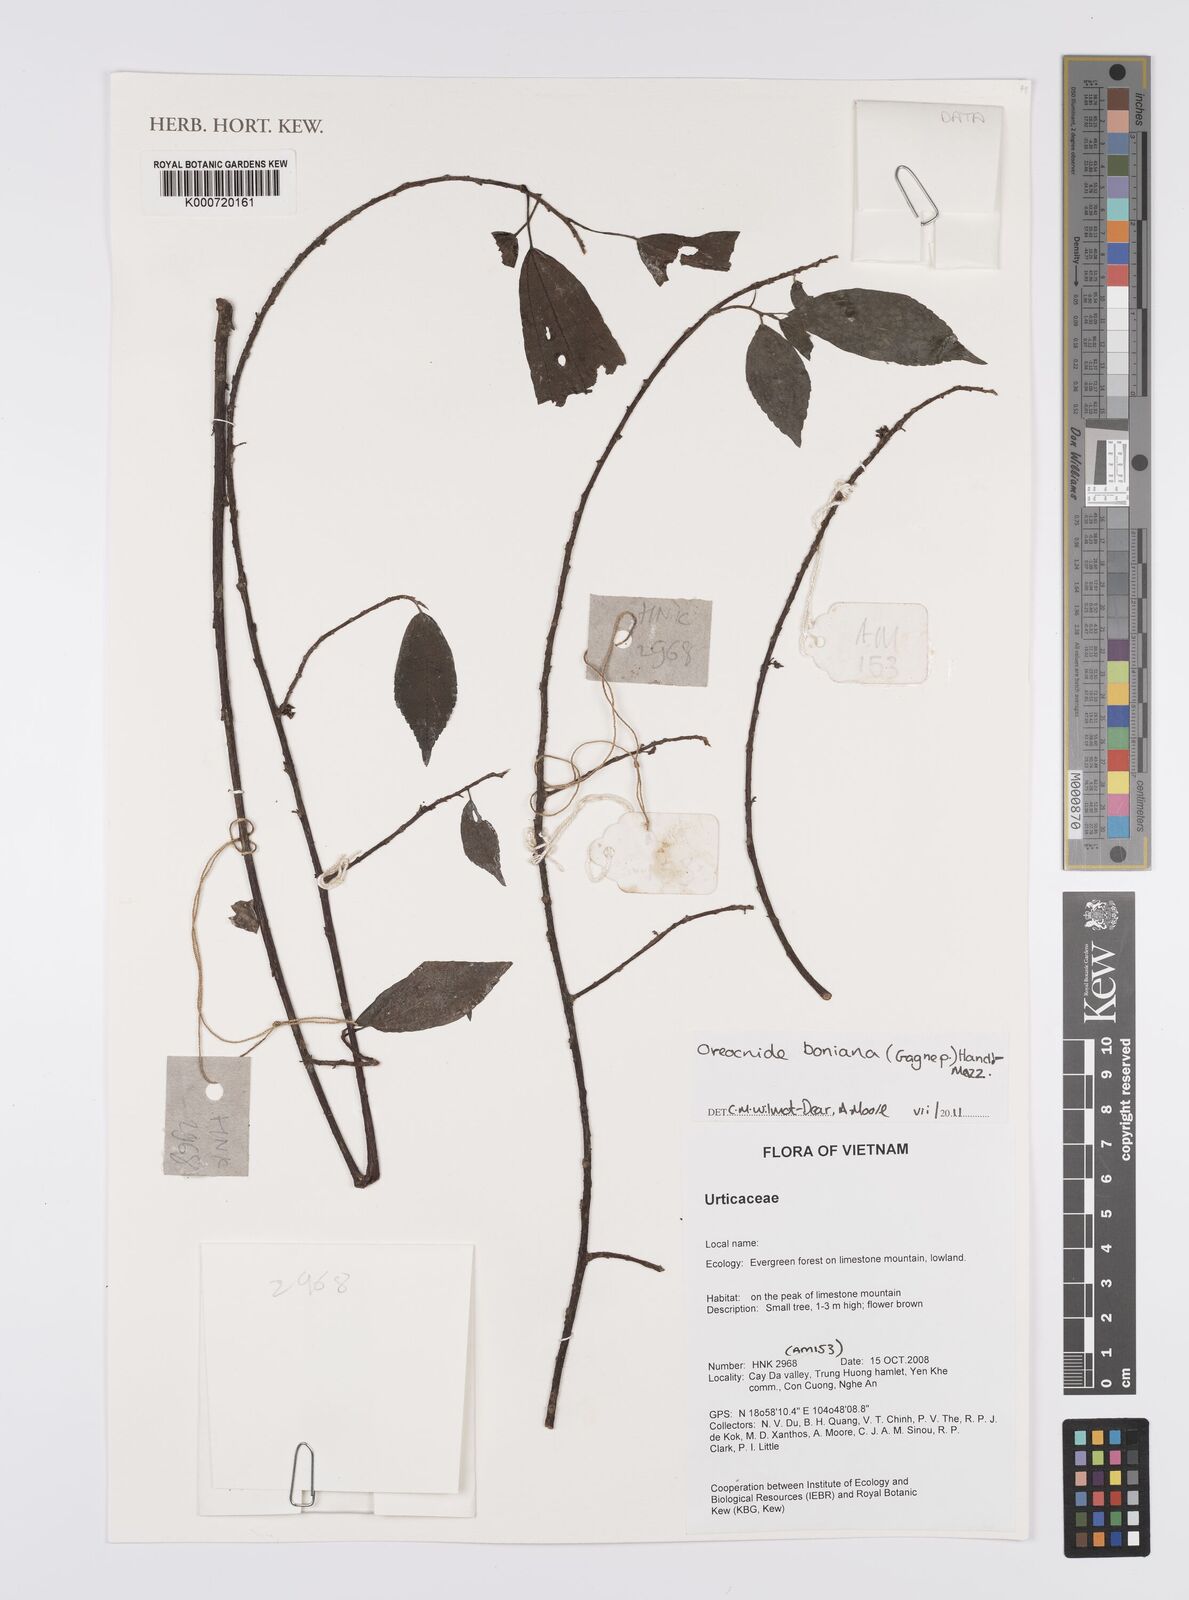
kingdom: Plantae
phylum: Tracheophyta
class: Magnoliopsida
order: Rosales
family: Urticaceae
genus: Oreocnide
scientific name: Oreocnide boniana
